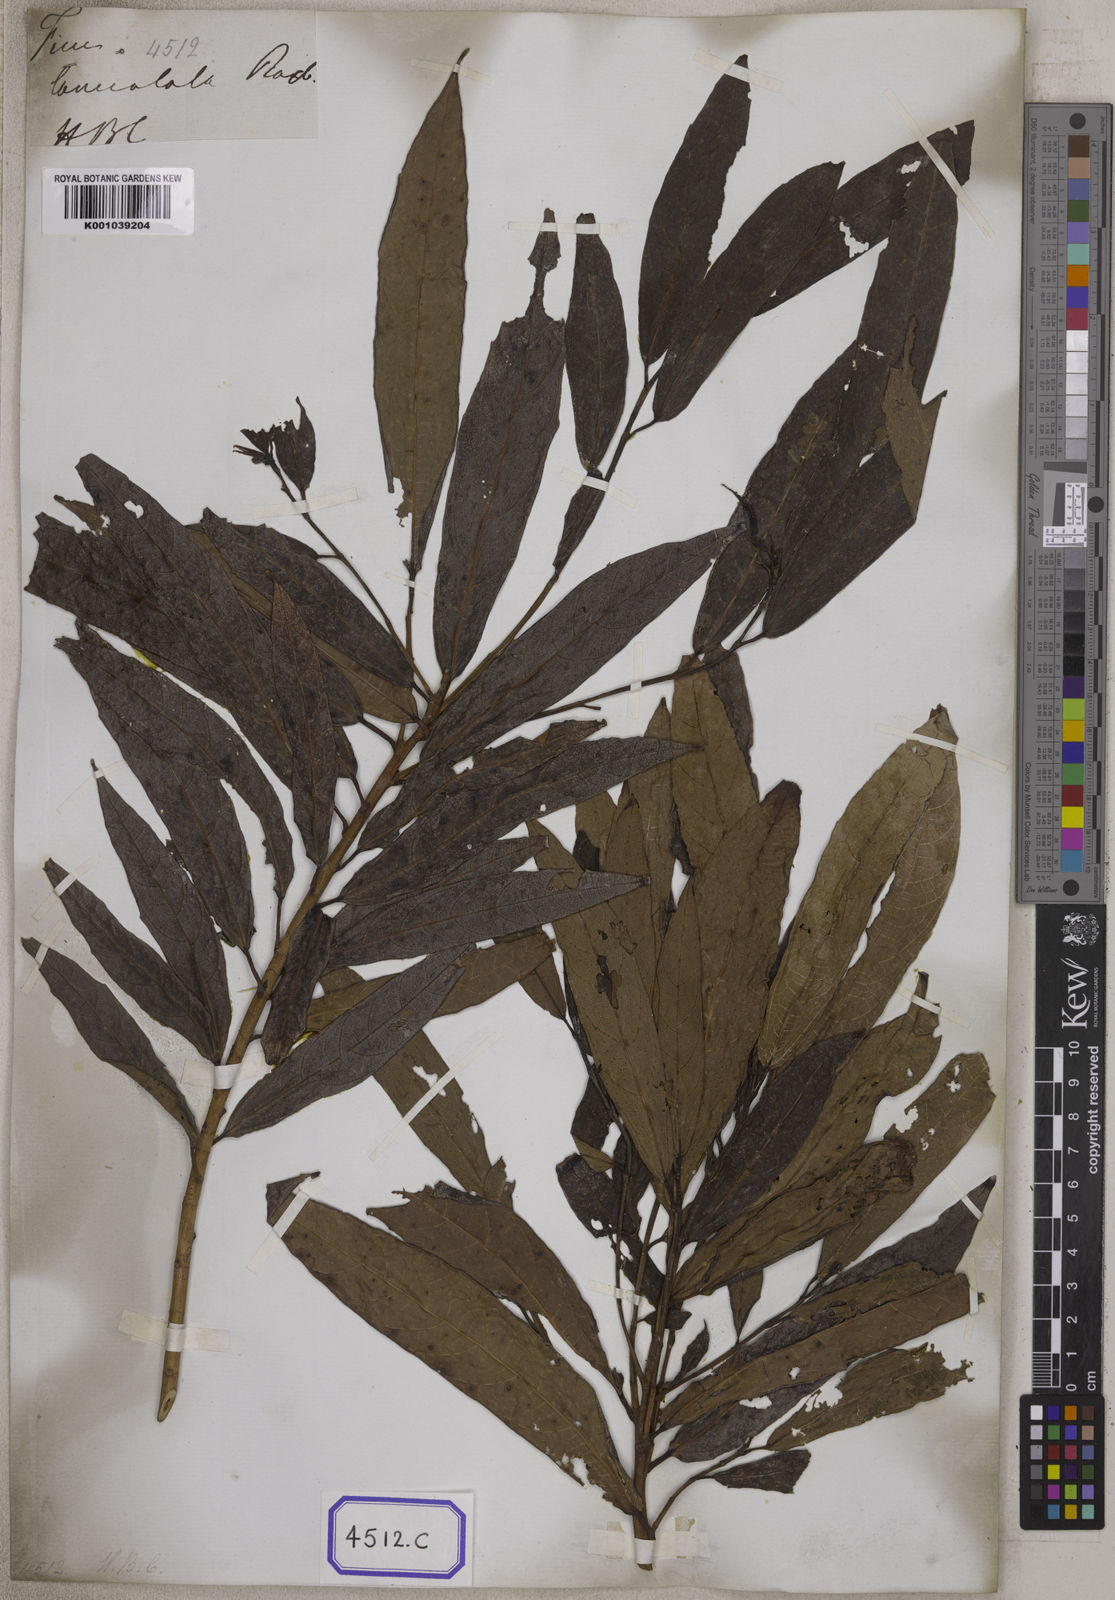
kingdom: Plantae
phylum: Tracheophyta
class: Magnoliopsida
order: Rosales
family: Moraceae
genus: Ficus
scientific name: Ficus racemosa
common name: Cluster fig
